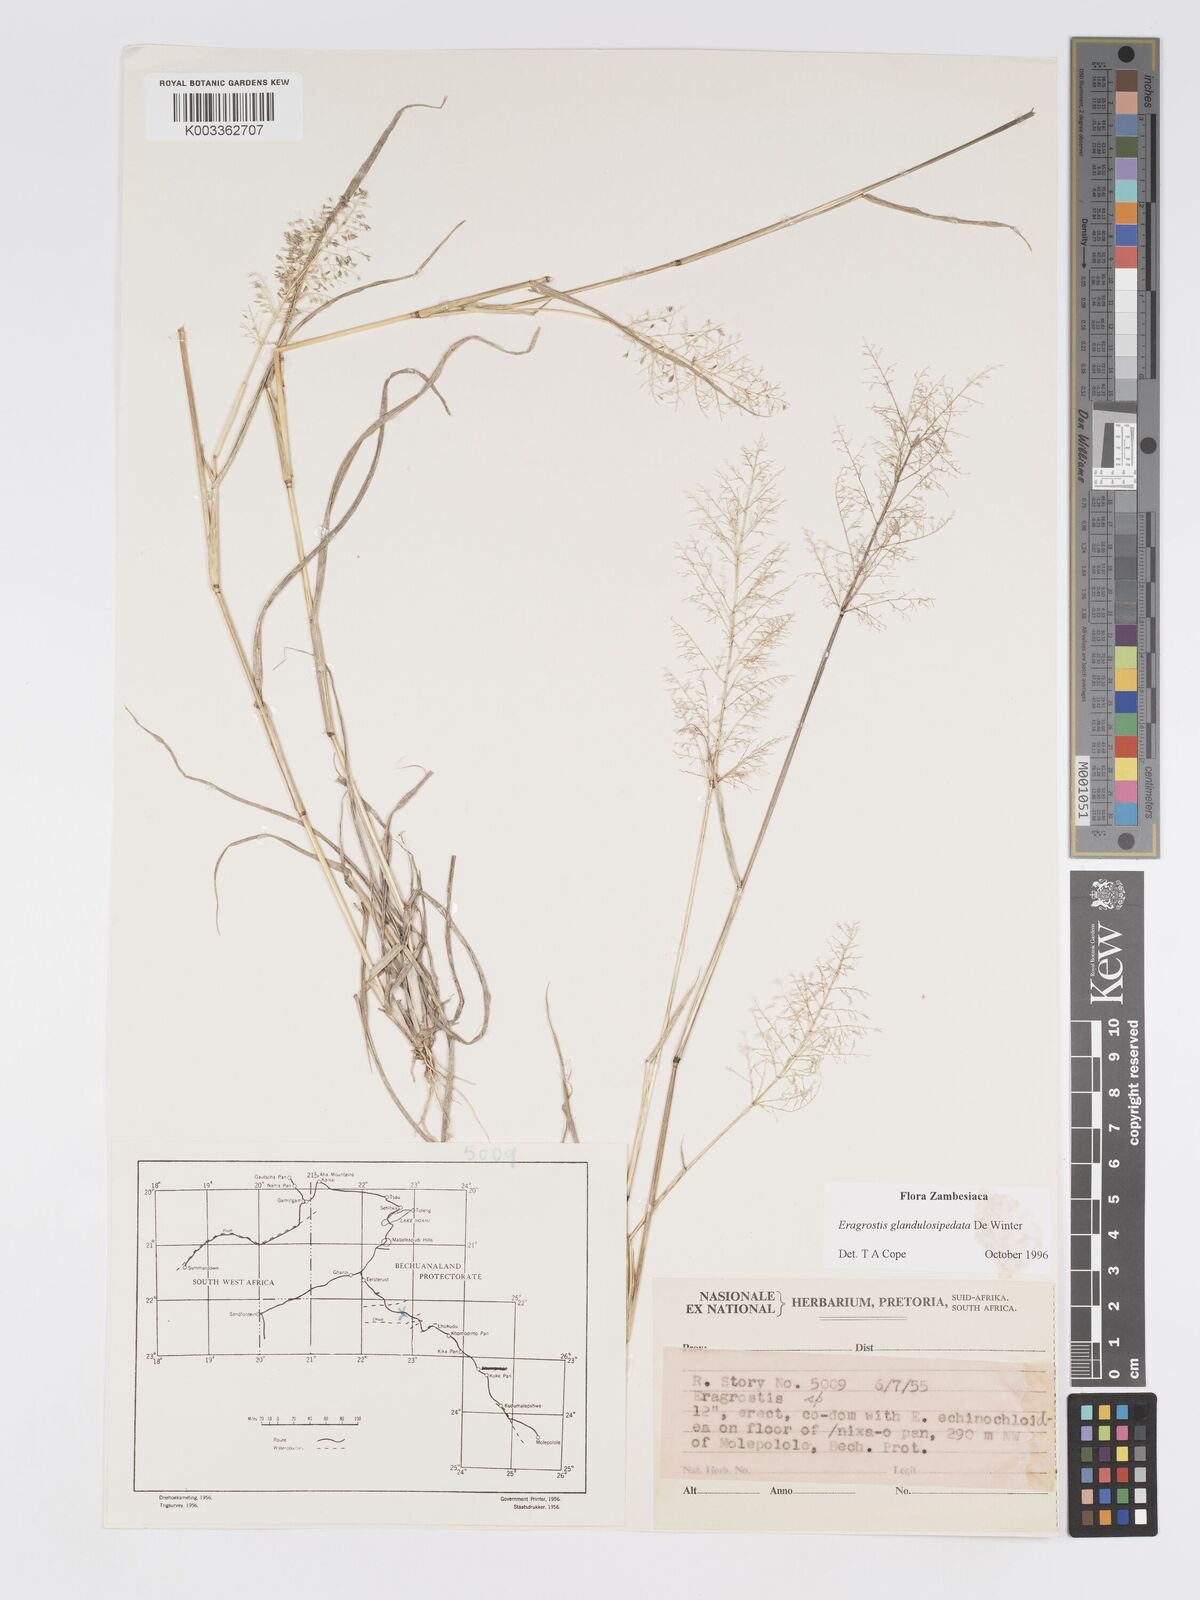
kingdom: Plantae
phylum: Tracheophyta
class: Liliopsida
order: Poales
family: Poaceae
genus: Eragrostis
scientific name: Eragrostis glandulosipedata
